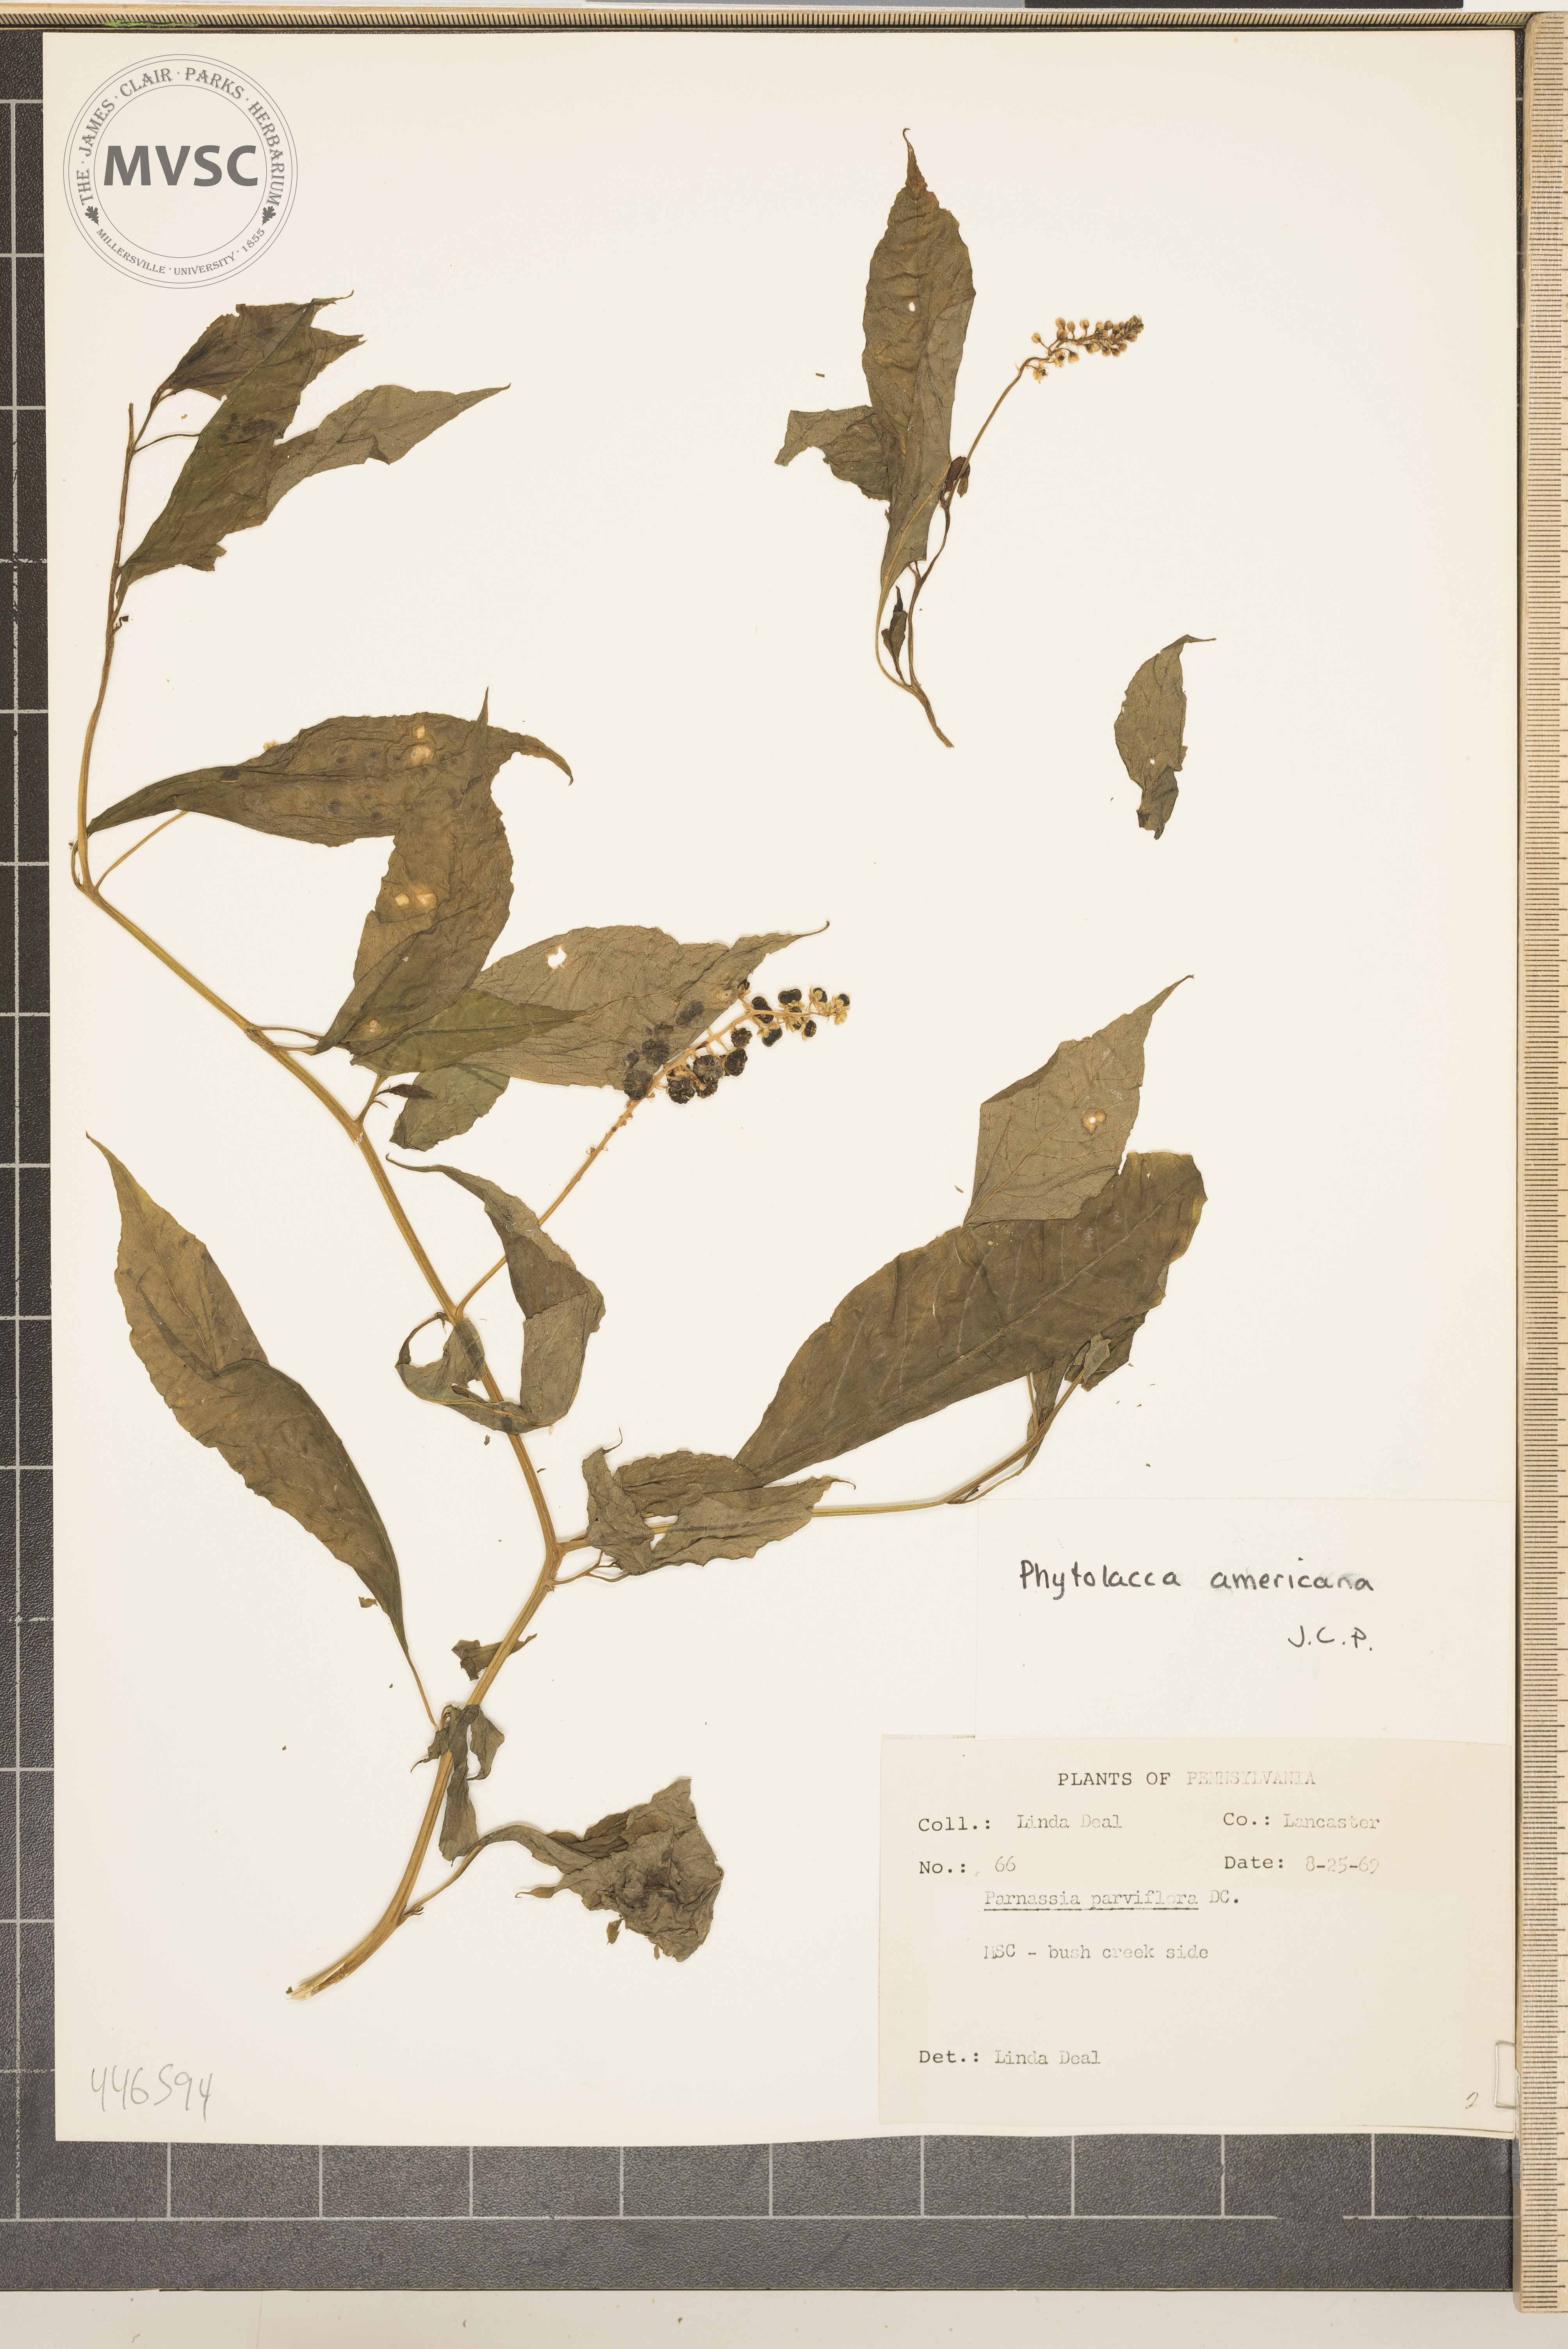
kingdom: Plantae
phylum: Tracheophyta
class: Magnoliopsida
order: Caryophyllales
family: Phytolaccaceae
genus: Phytolacca
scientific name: Phytolacca americana
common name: American pokeweed
